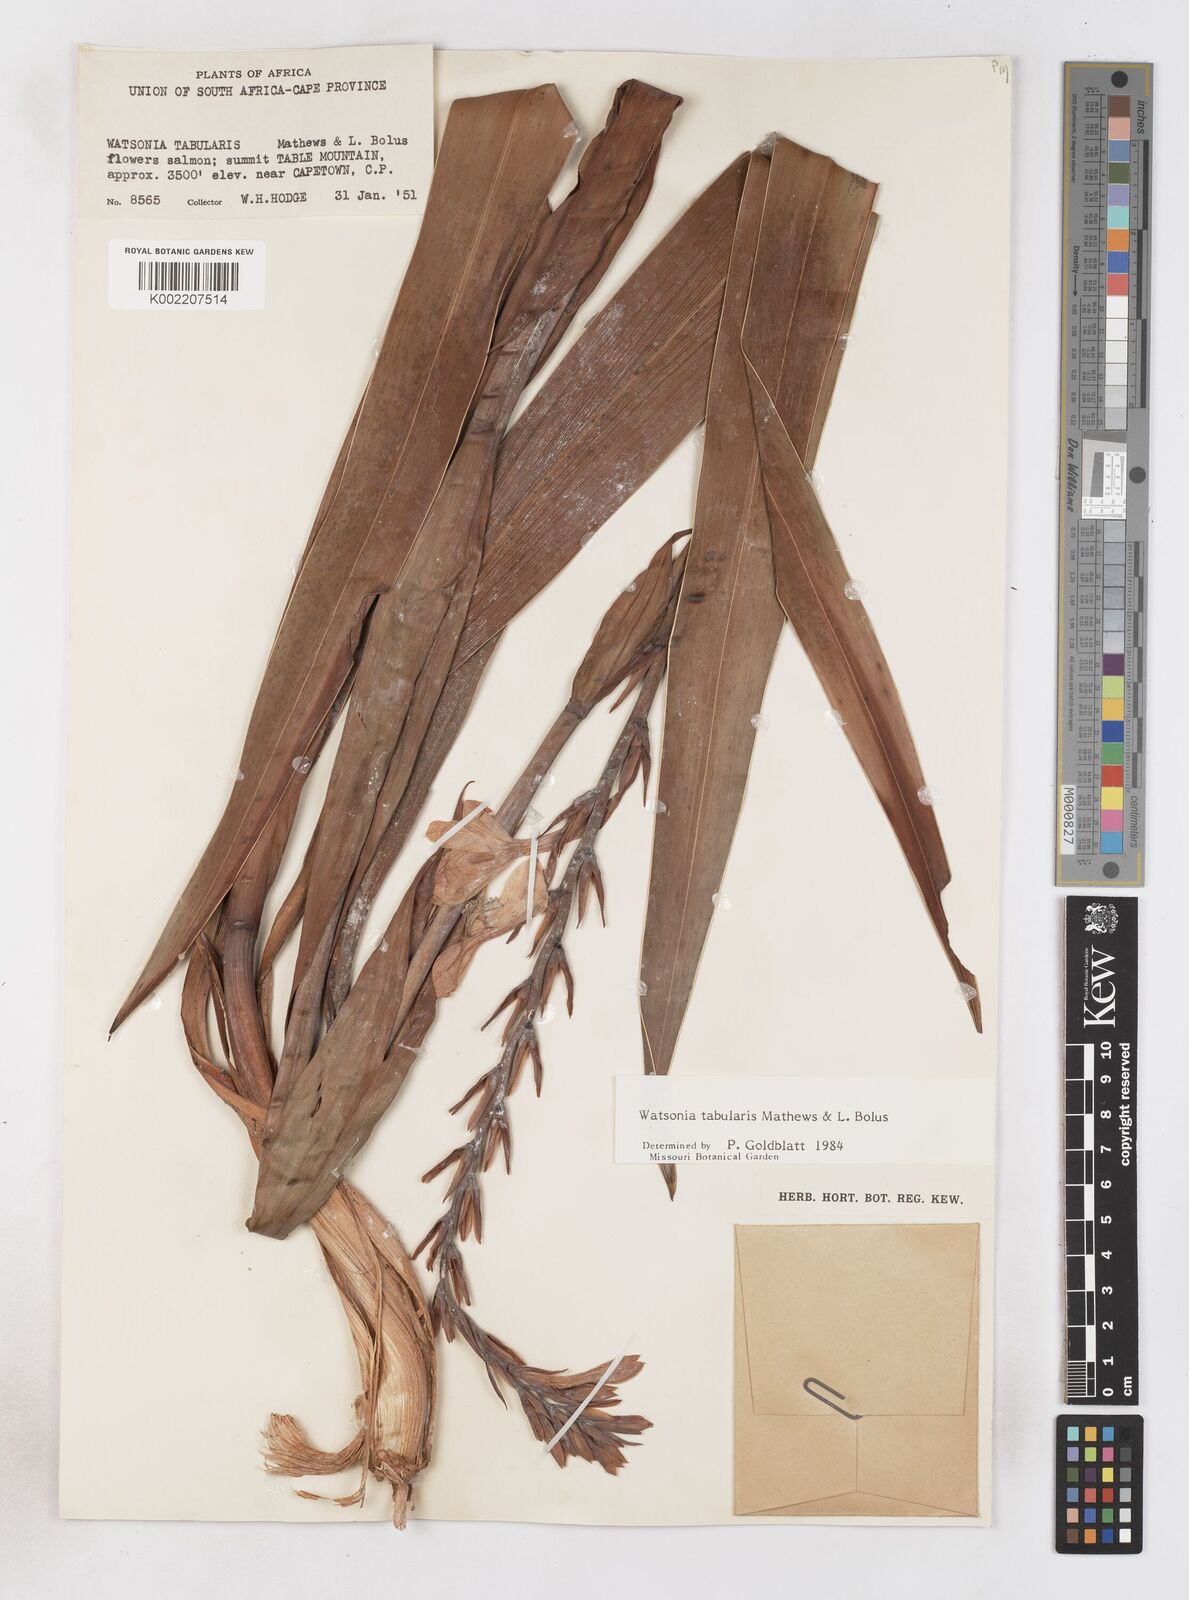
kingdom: Plantae
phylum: Tracheophyta
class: Liliopsida
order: Asparagales
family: Iridaceae
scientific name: Iridaceae
